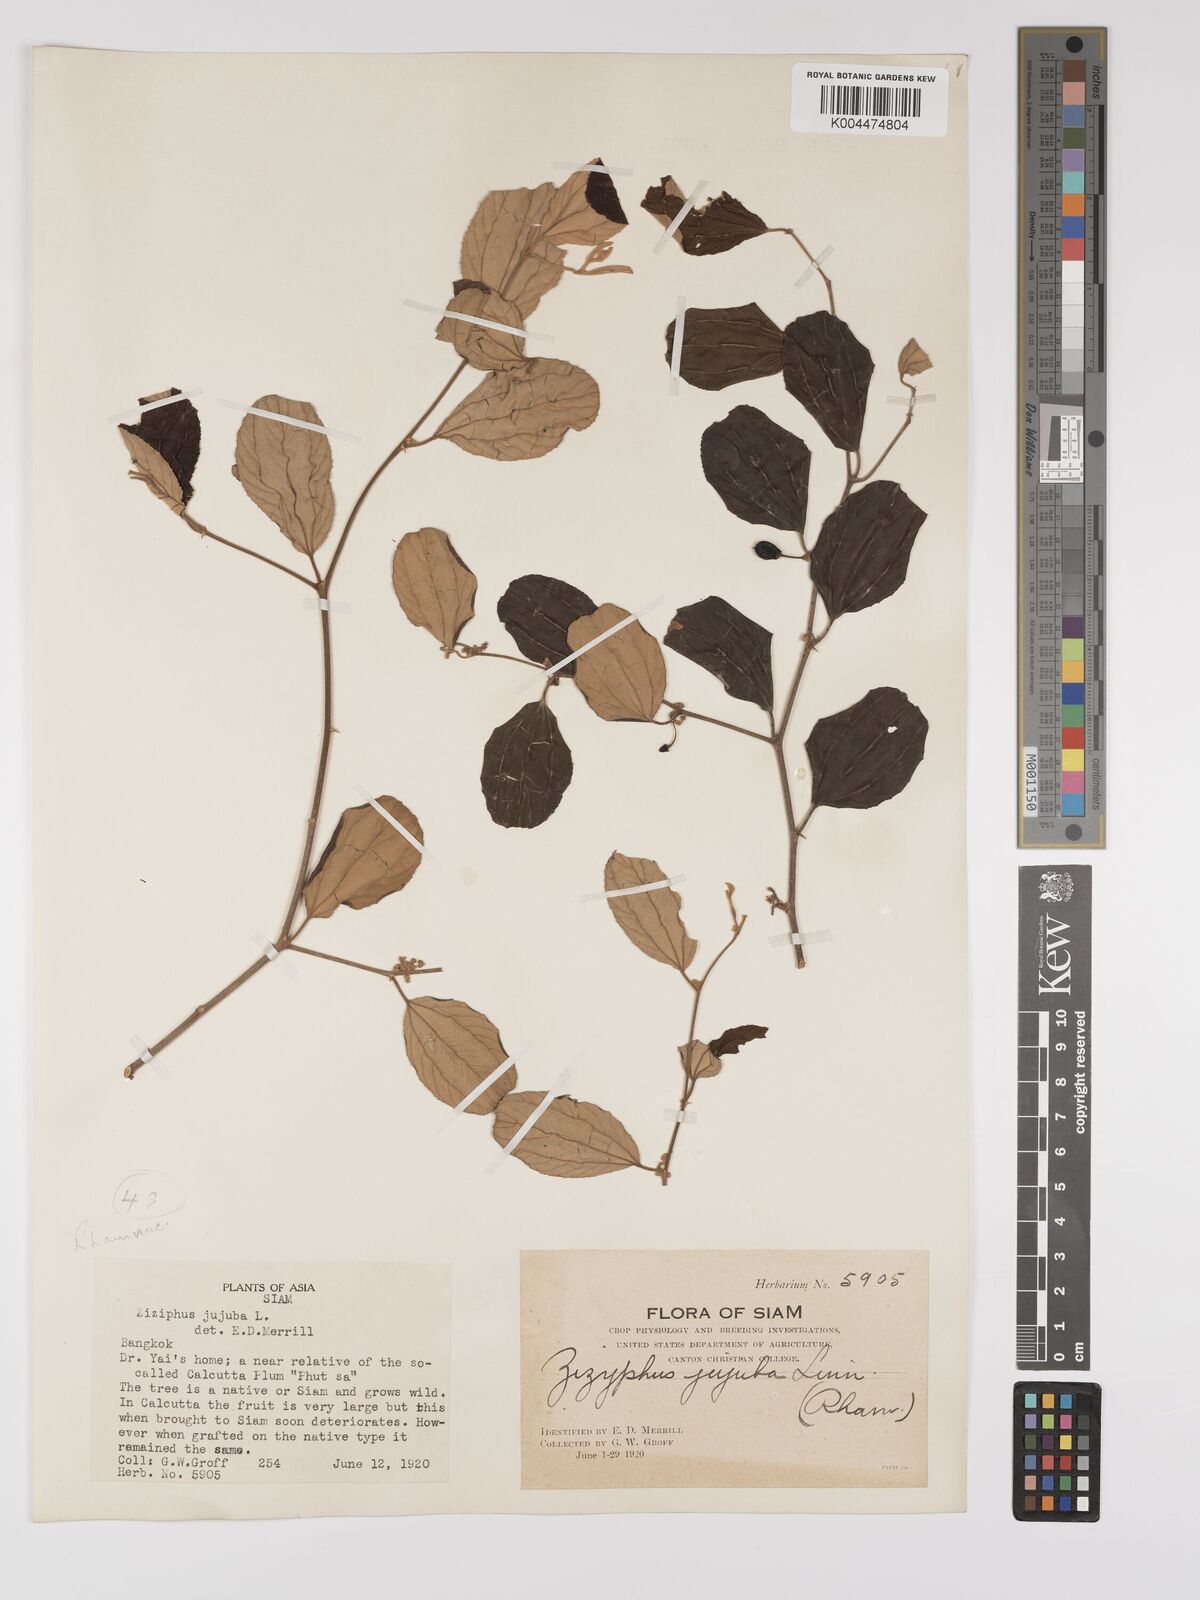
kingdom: Plantae
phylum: Tracheophyta
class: Magnoliopsida
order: Rosales
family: Rhamnaceae
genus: Ziziphus
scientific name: Ziziphus mauritiana
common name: Indian jujube
